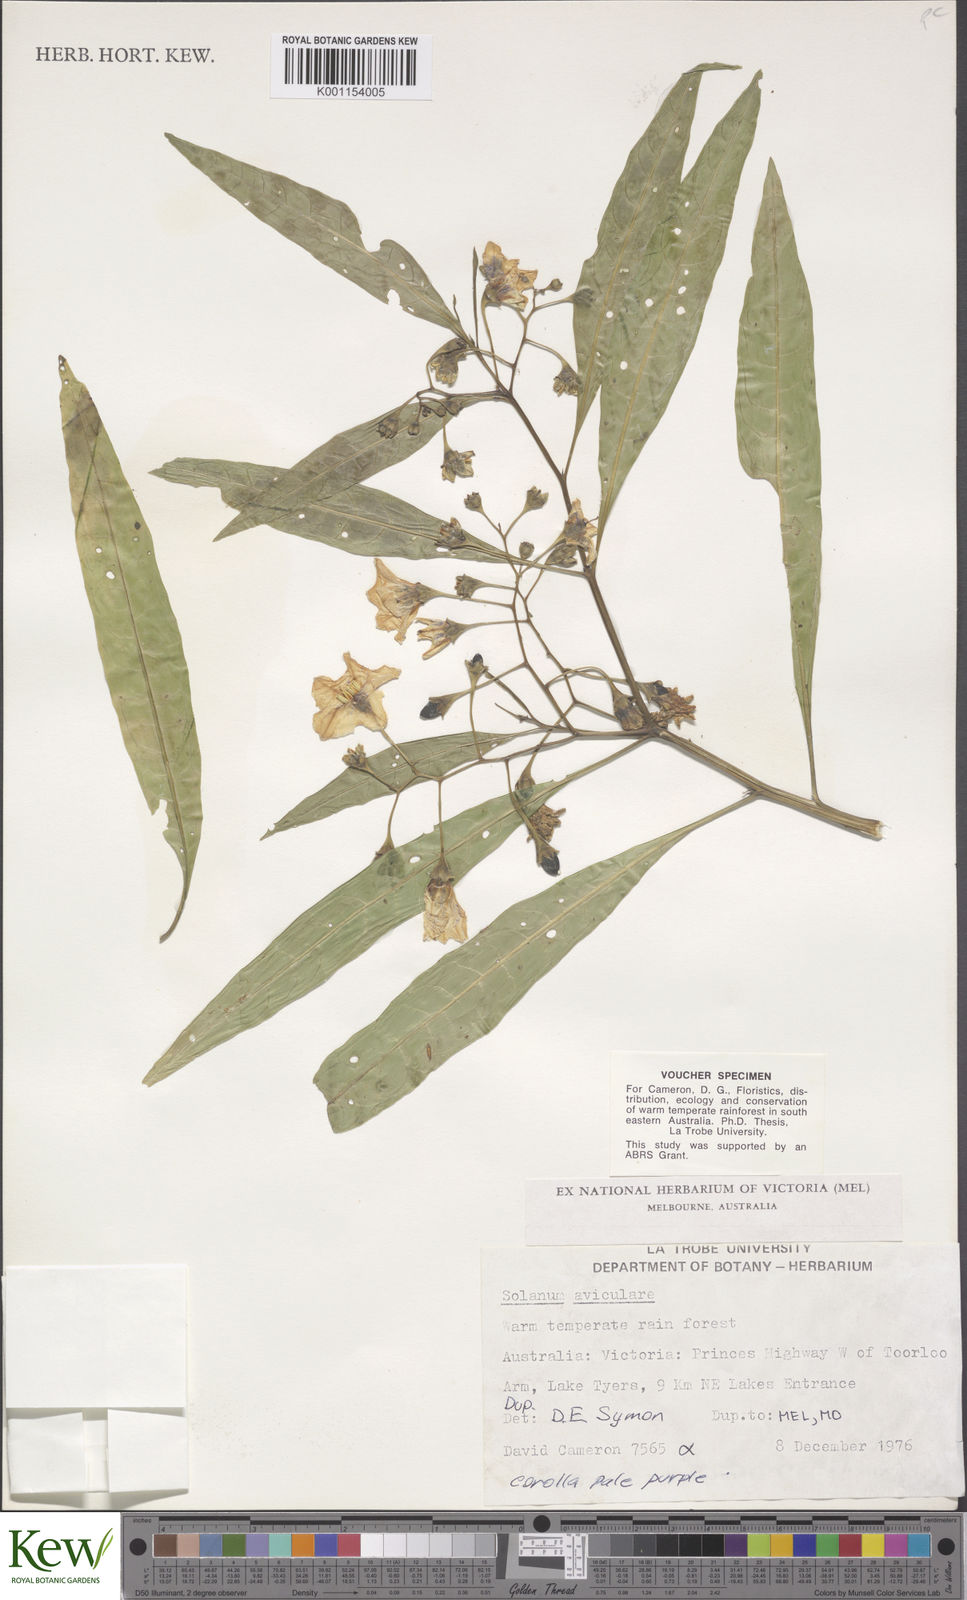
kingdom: Plantae
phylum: Tracheophyta
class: Magnoliopsida
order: Solanales
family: Solanaceae
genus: Solanum
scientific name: Solanum aviculare
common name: New zealand nightshade
